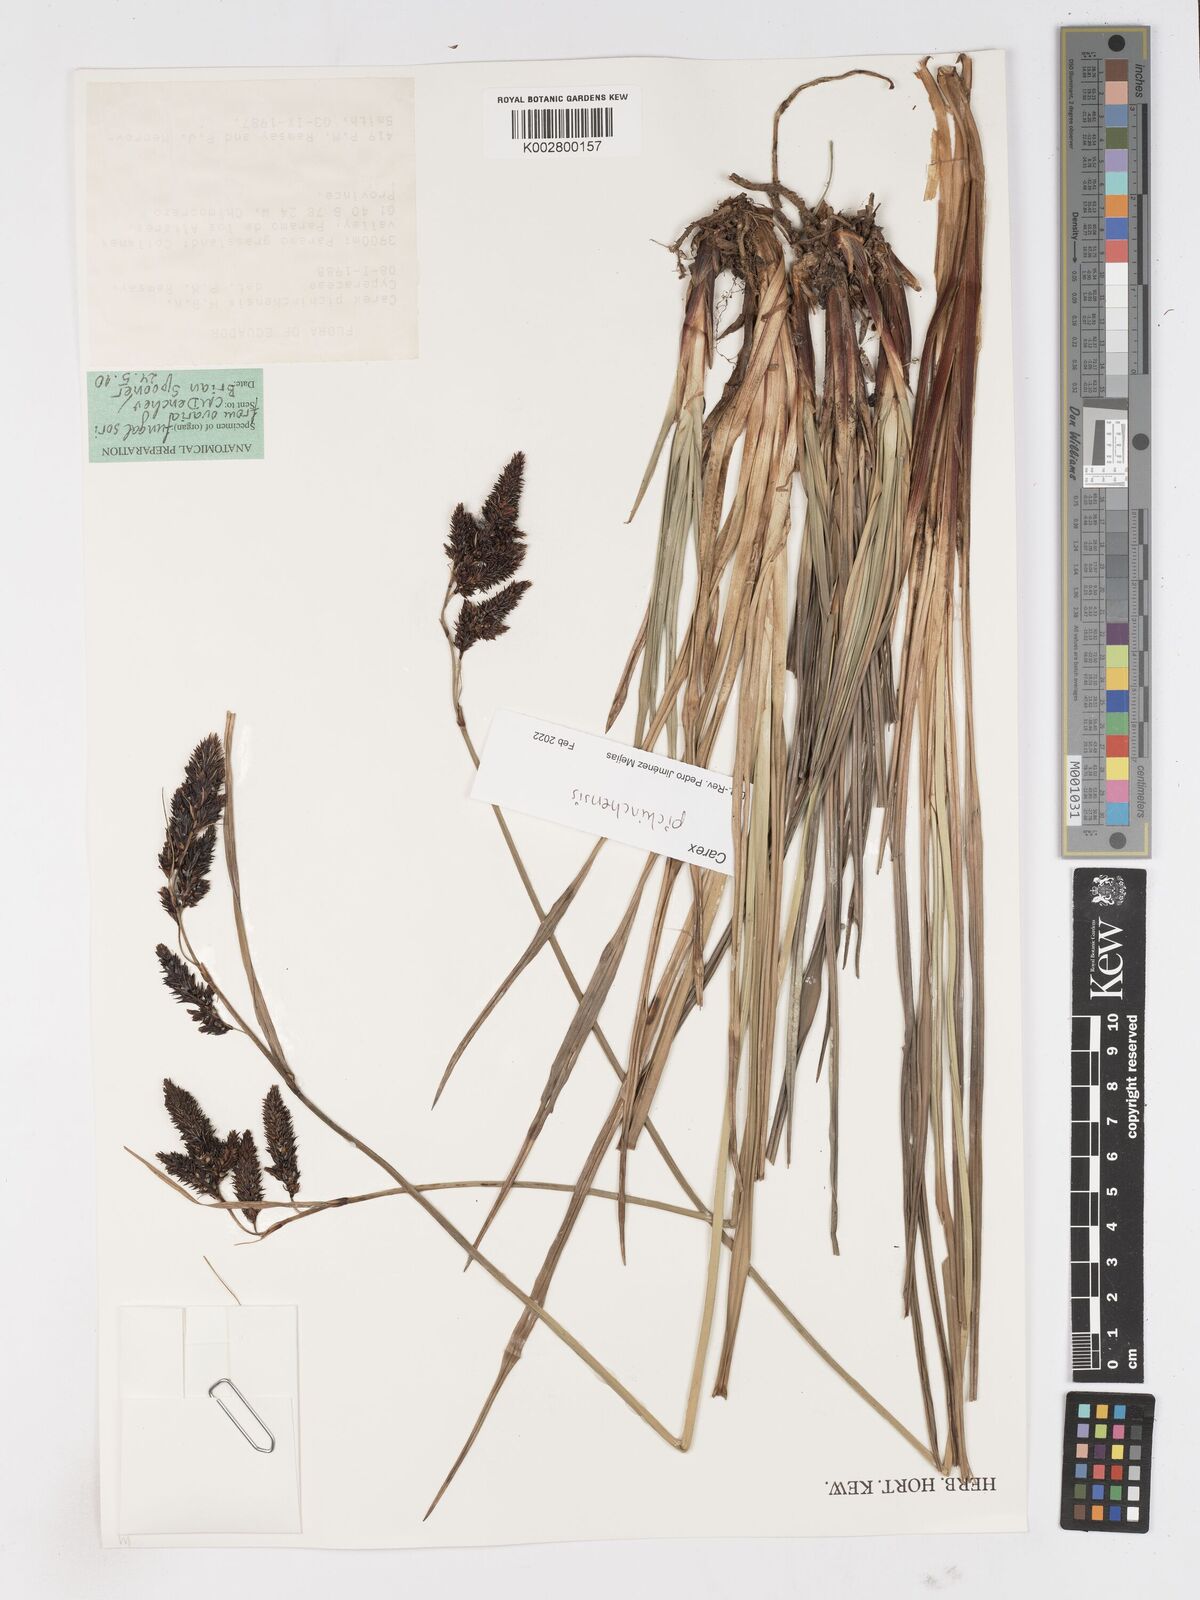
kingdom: Plantae
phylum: Tracheophyta
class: Liliopsida
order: Poales
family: Cyperaceae
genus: Carex
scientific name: Carex pichinchensis
